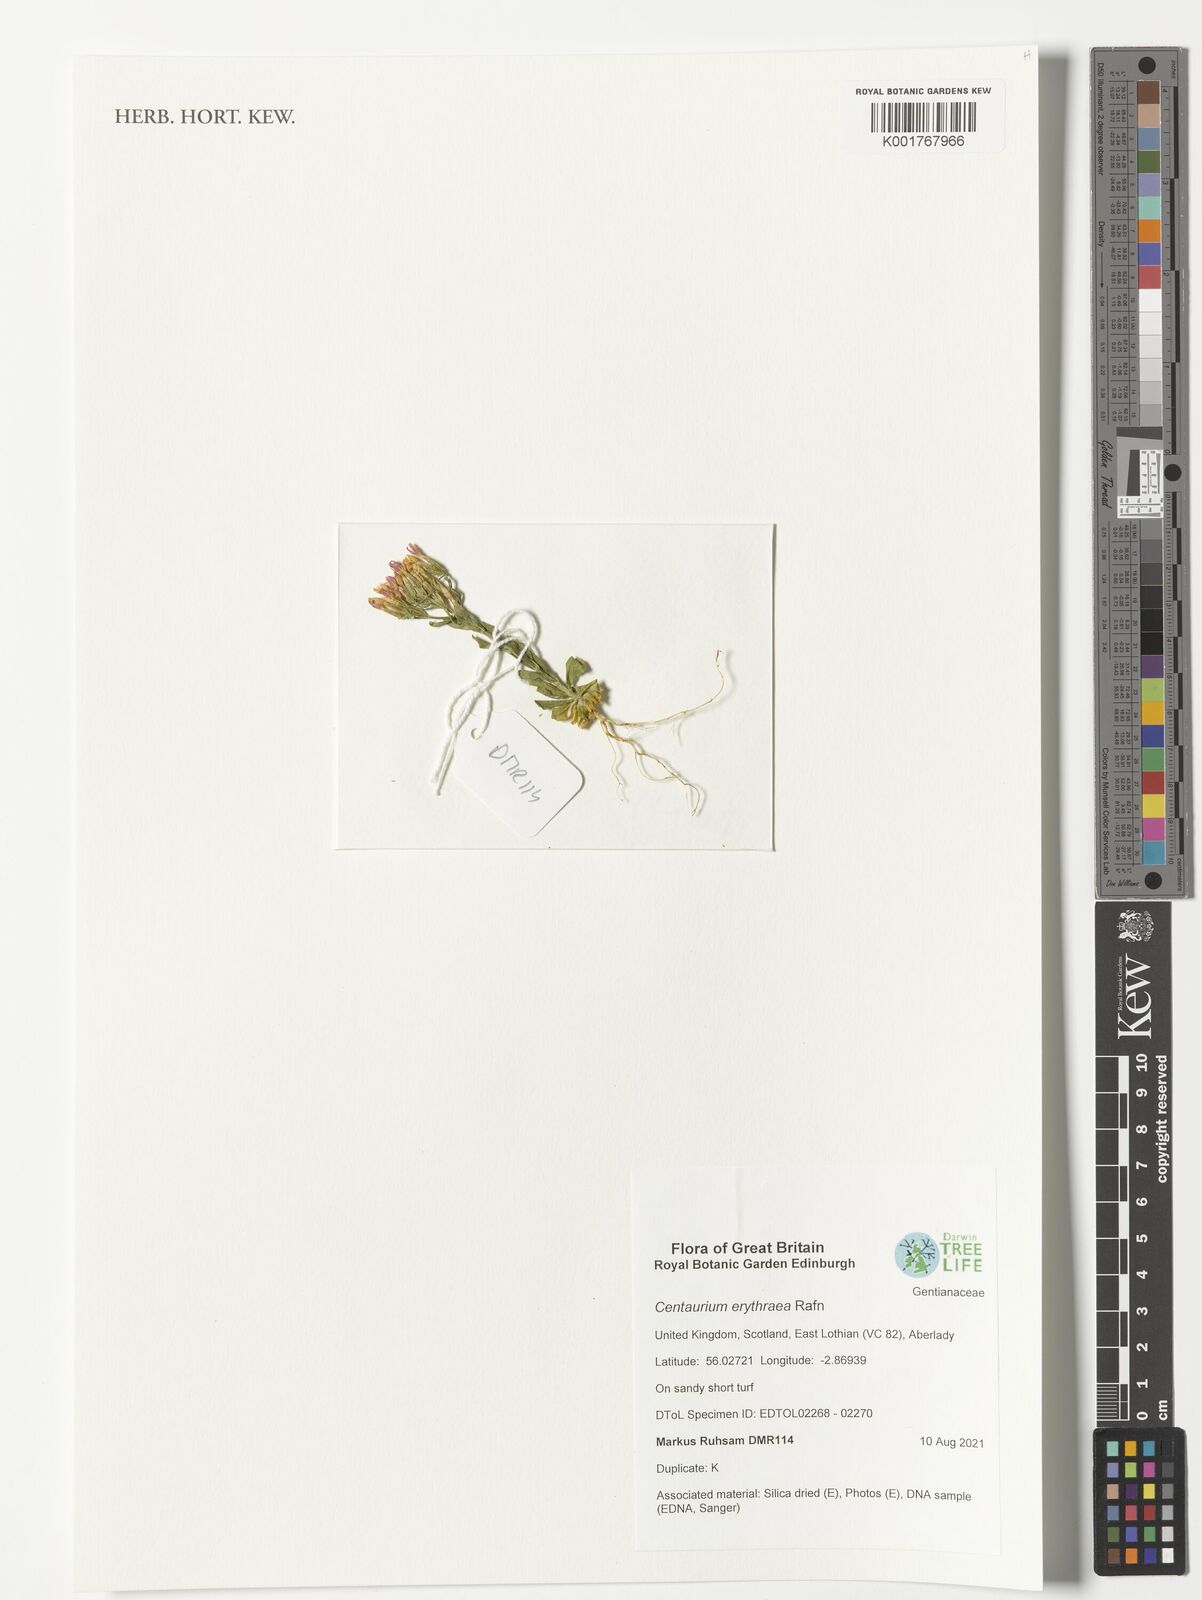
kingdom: Plantae
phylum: Tracheophyta
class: Magnoliopsida
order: Gentianales
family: Gentianaceae
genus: Centaurium
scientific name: Centaurium erythraea
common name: Common centaury
